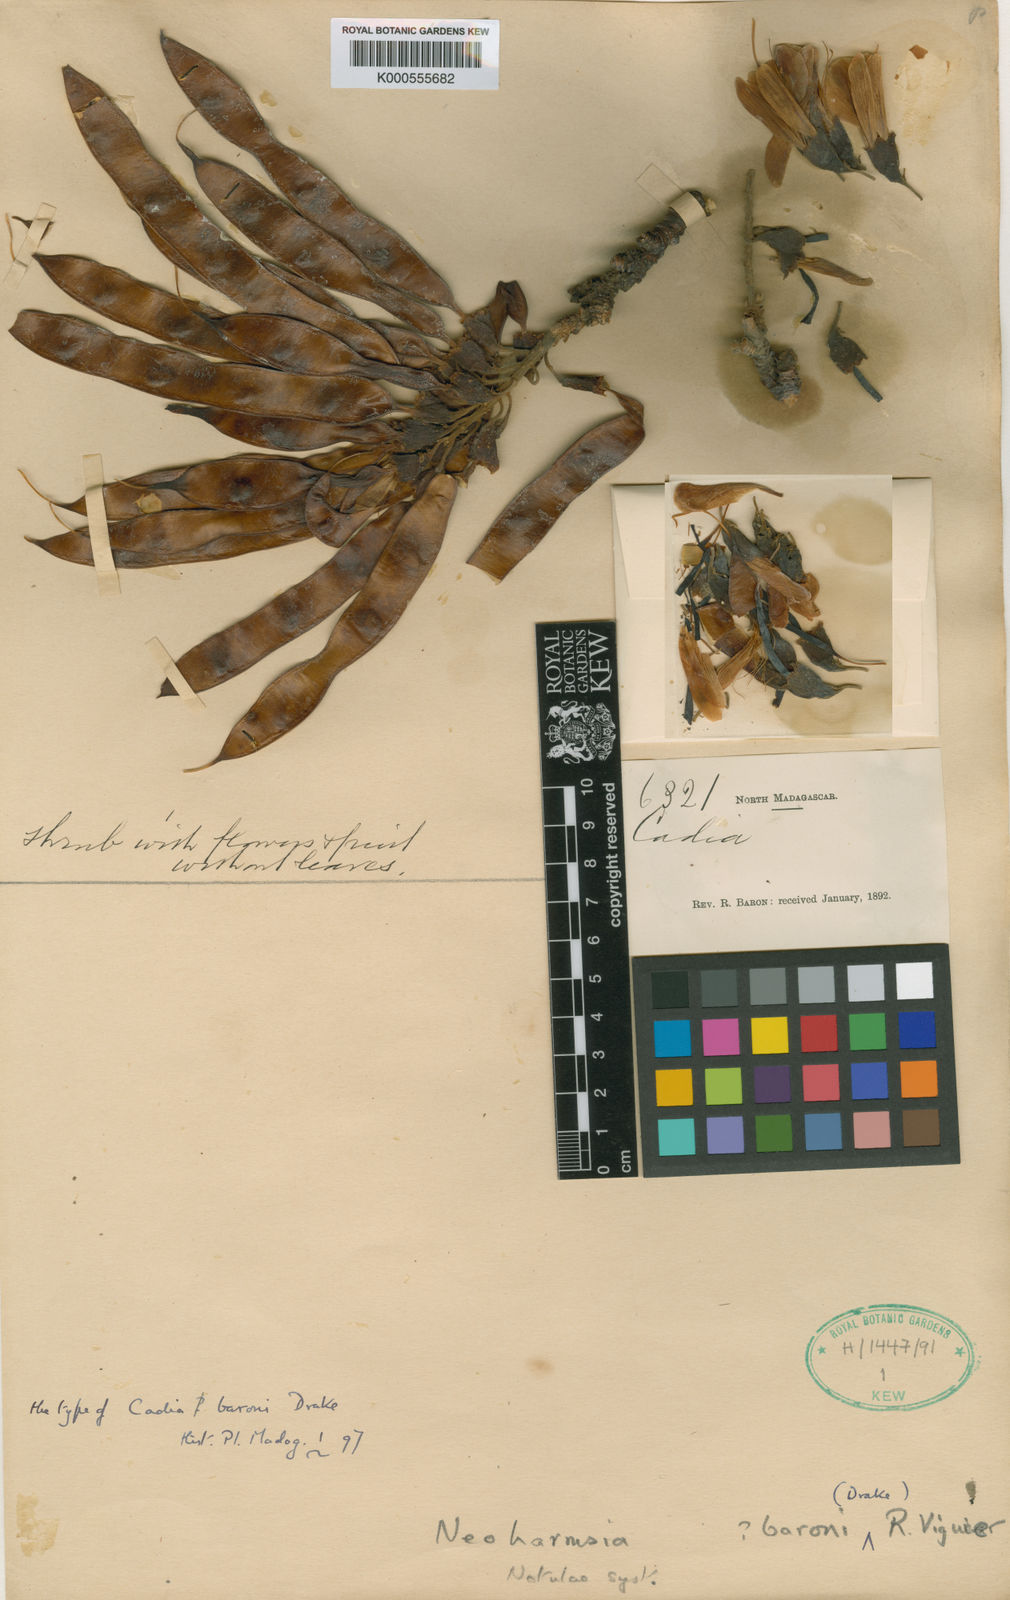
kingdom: Plantae
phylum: Tracheophyta
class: Magnoliopsida
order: Fabales
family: Fabaceae
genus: Neoharmsia
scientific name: Neoharmsia
